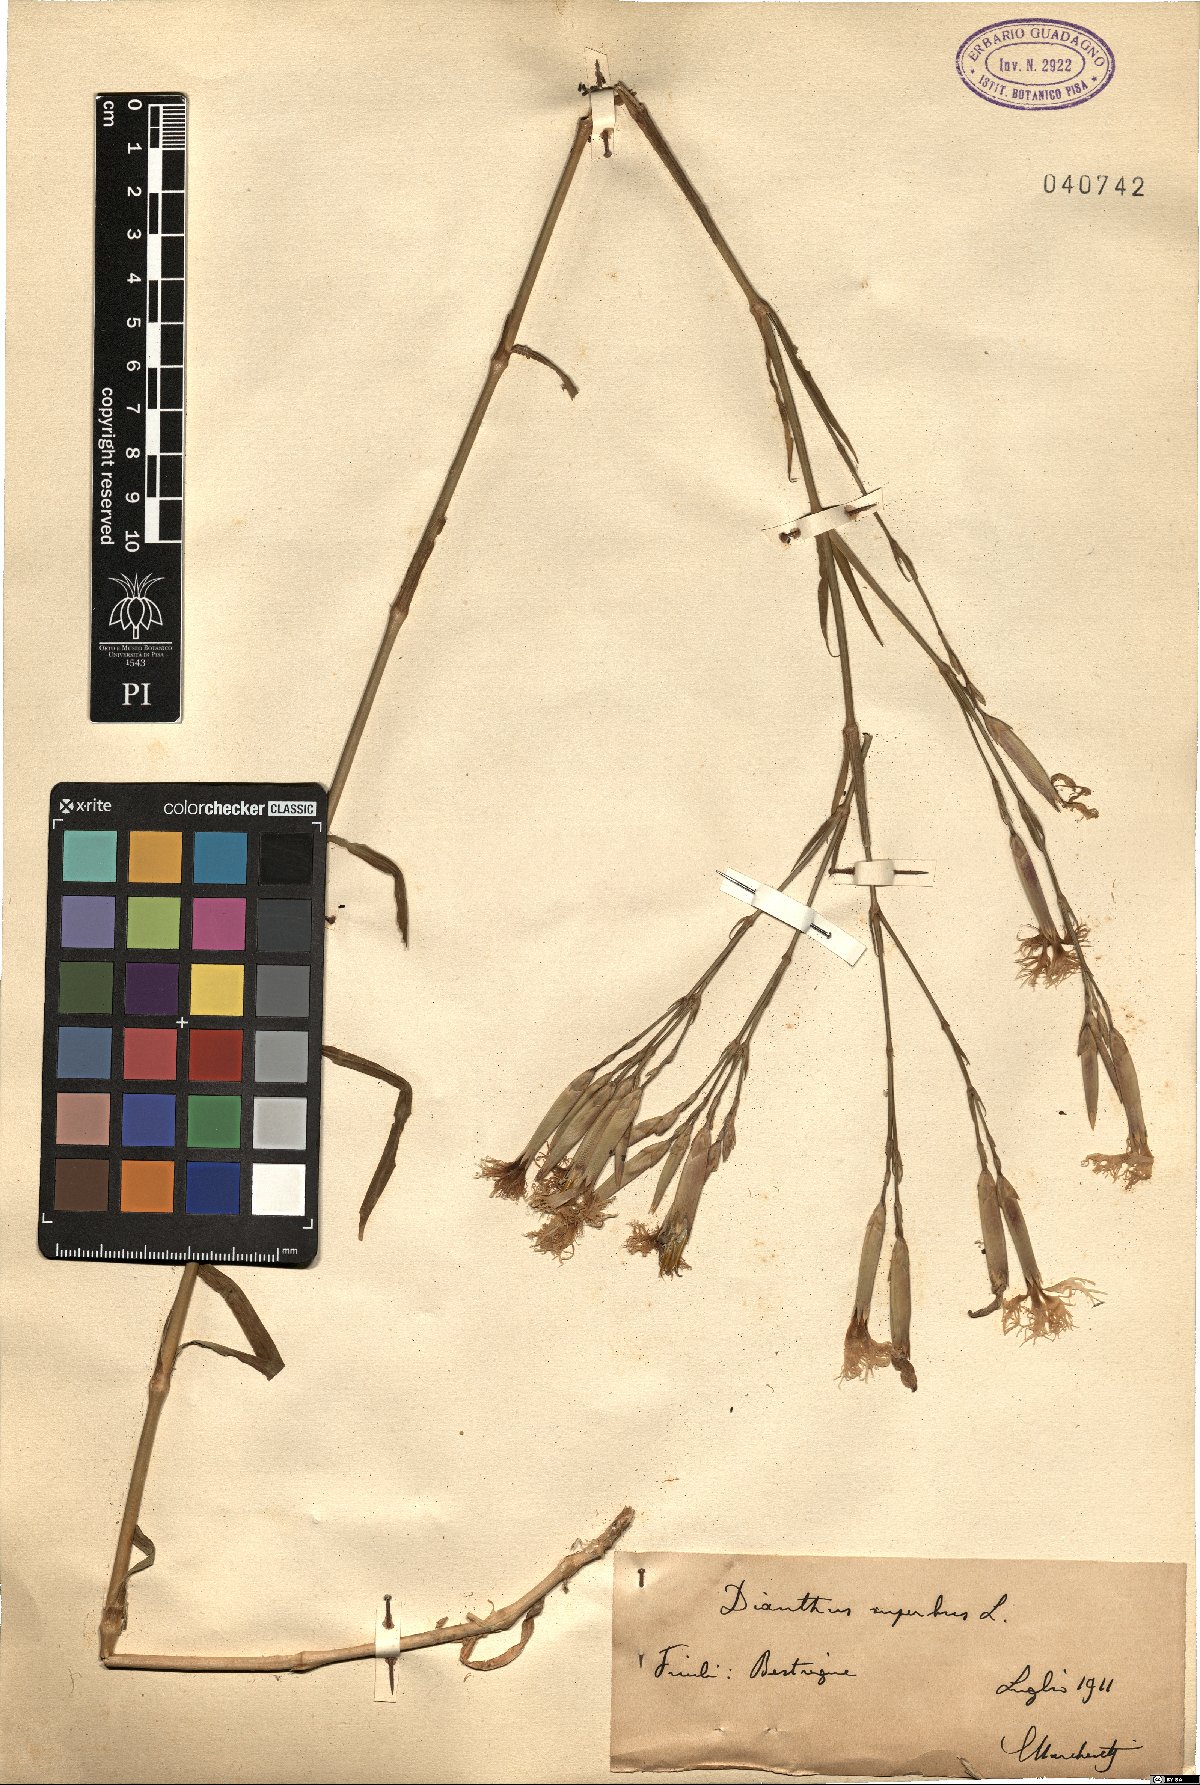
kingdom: Plantae
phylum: Tracheophyta
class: Magnoliopsida
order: Caryophyllales
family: Caryophyllaceae
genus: Dianthus
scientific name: Dianthus superbus
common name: Fringed pink
